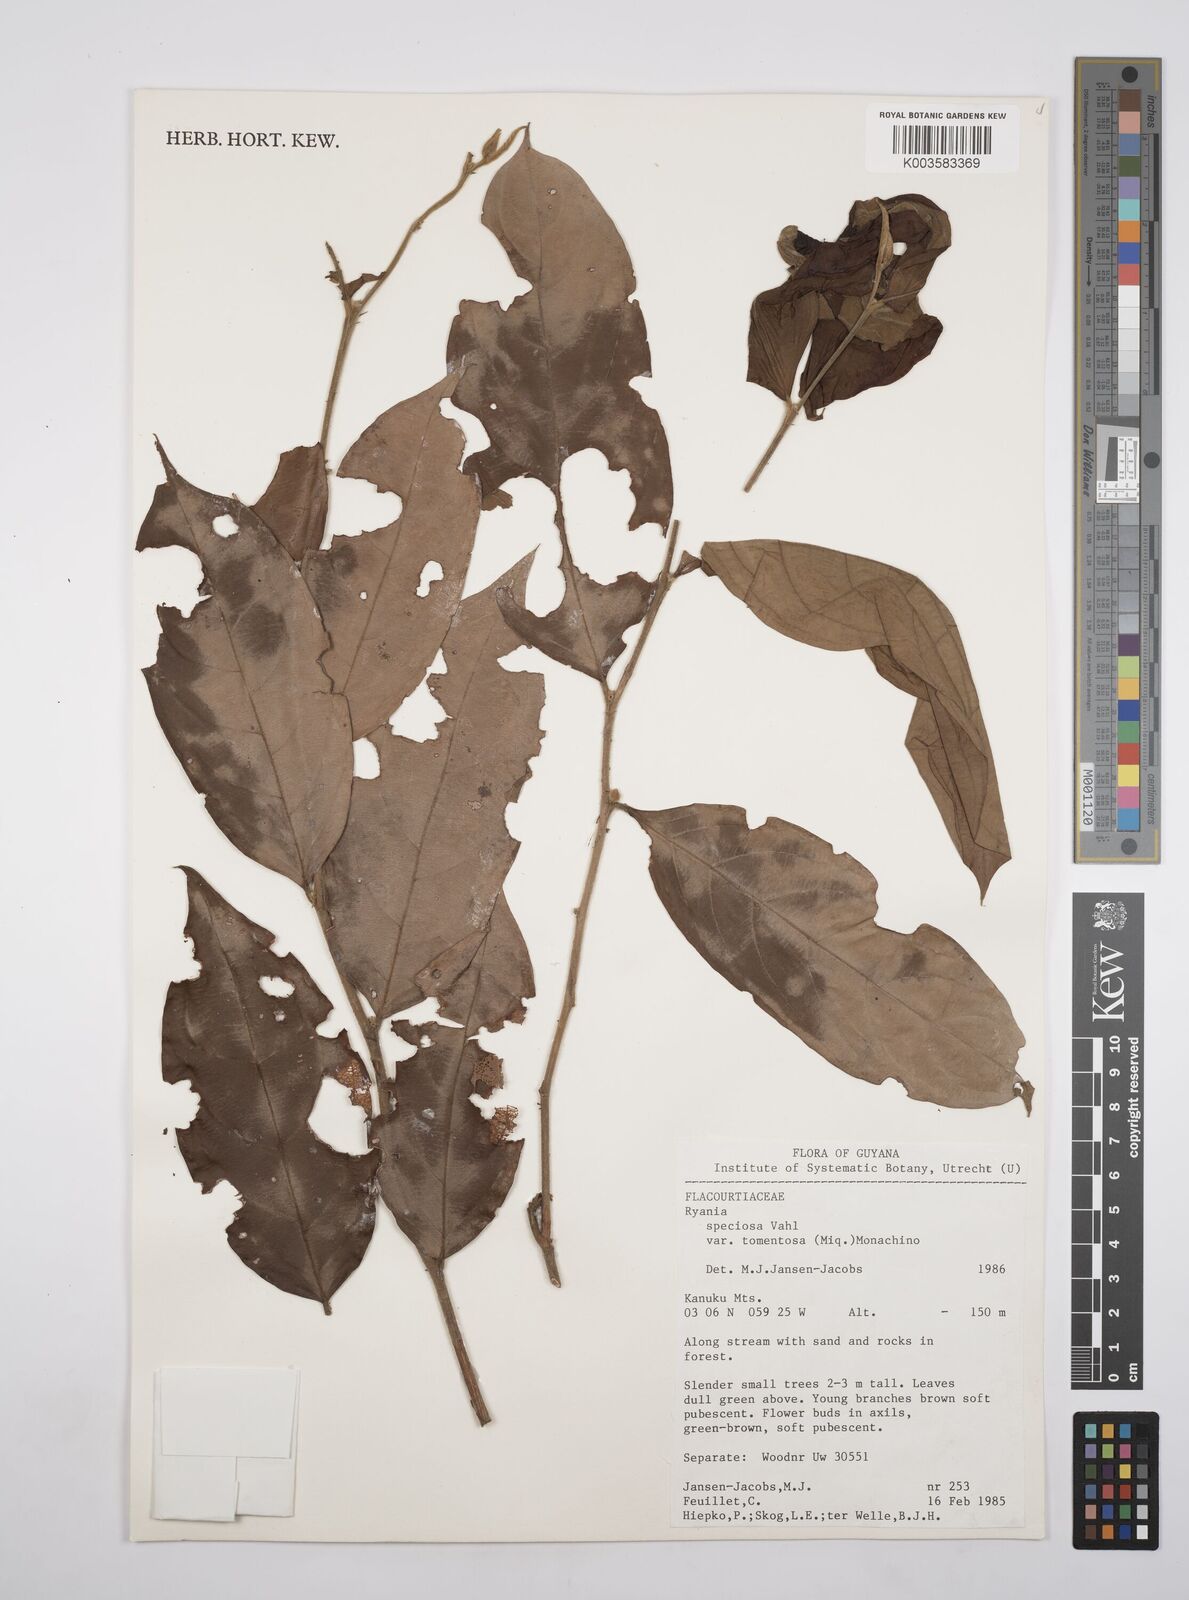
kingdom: Plantae
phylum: Tracheophyta
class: Magnoliopsida
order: Malpighiales
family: Salicaceae
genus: Ryania
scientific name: Ryania speciosa
